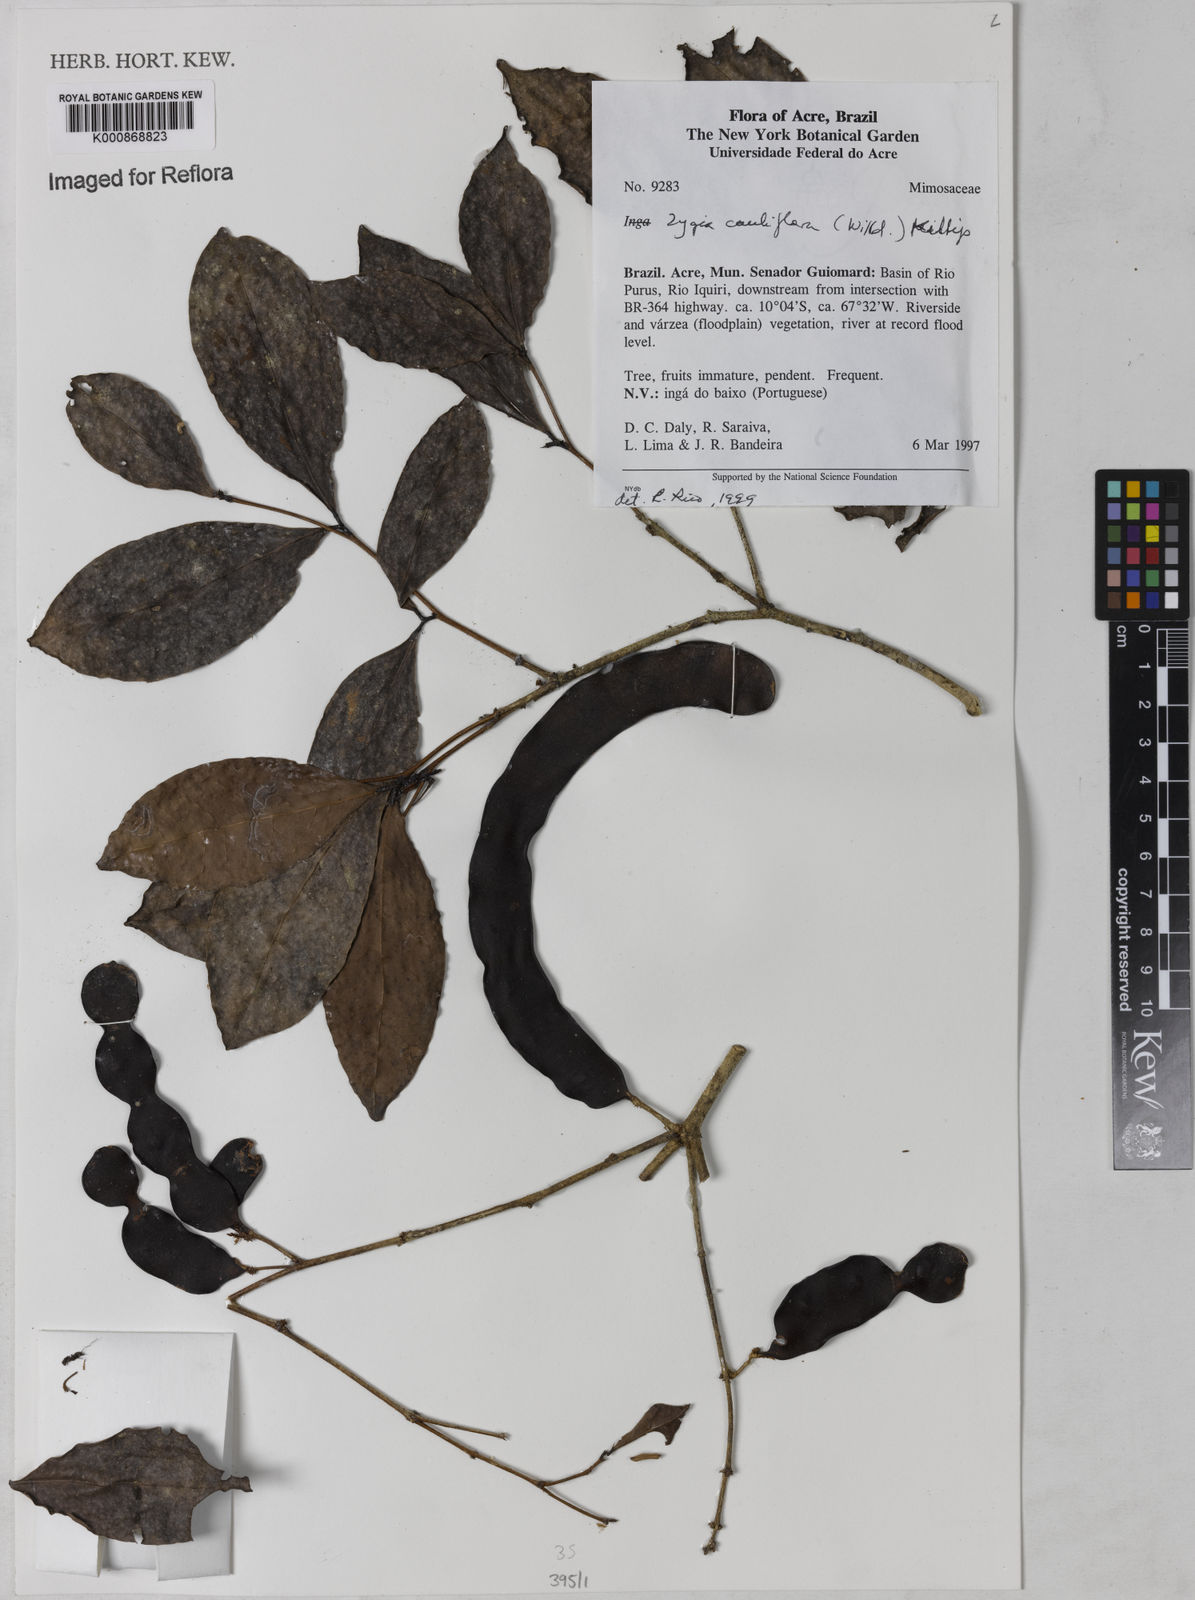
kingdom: Plantae
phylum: Tracheophyta
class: Magnoliopsida
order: Fabales
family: Fabaceae
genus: Zygia
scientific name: Zygia
